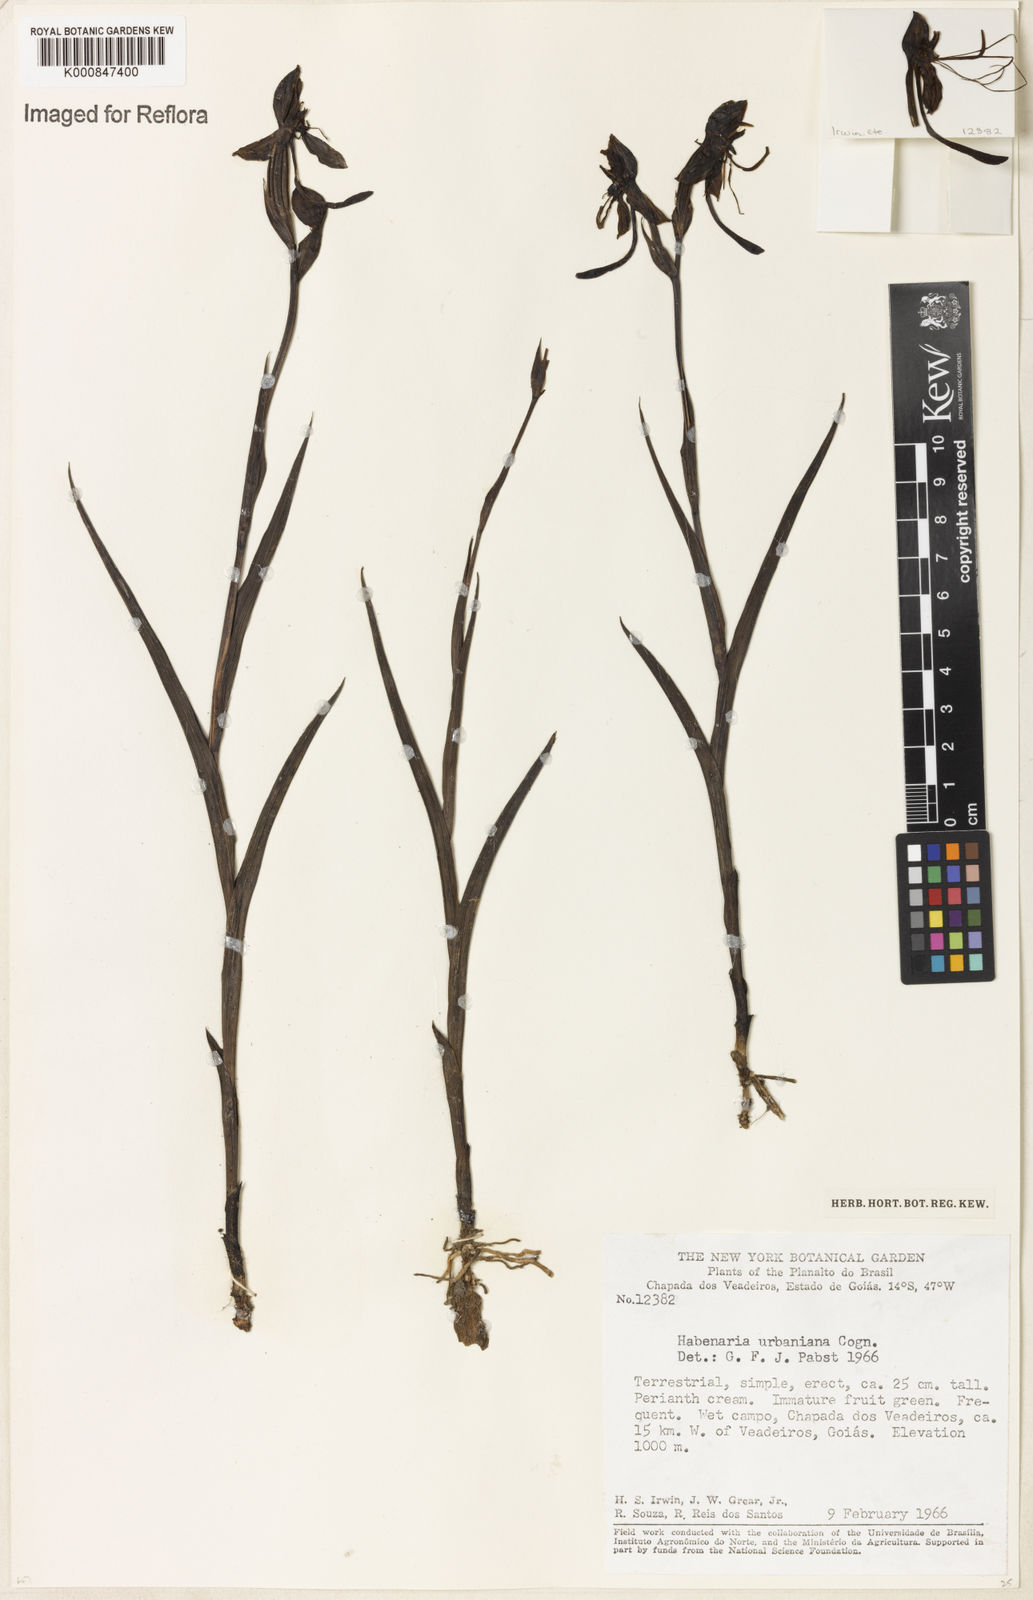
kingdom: Plantae
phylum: Tracheophyta
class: Liliopsida
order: Asparagales
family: Orchidaceae
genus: Habenaria
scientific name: Habenaria urbaniana
